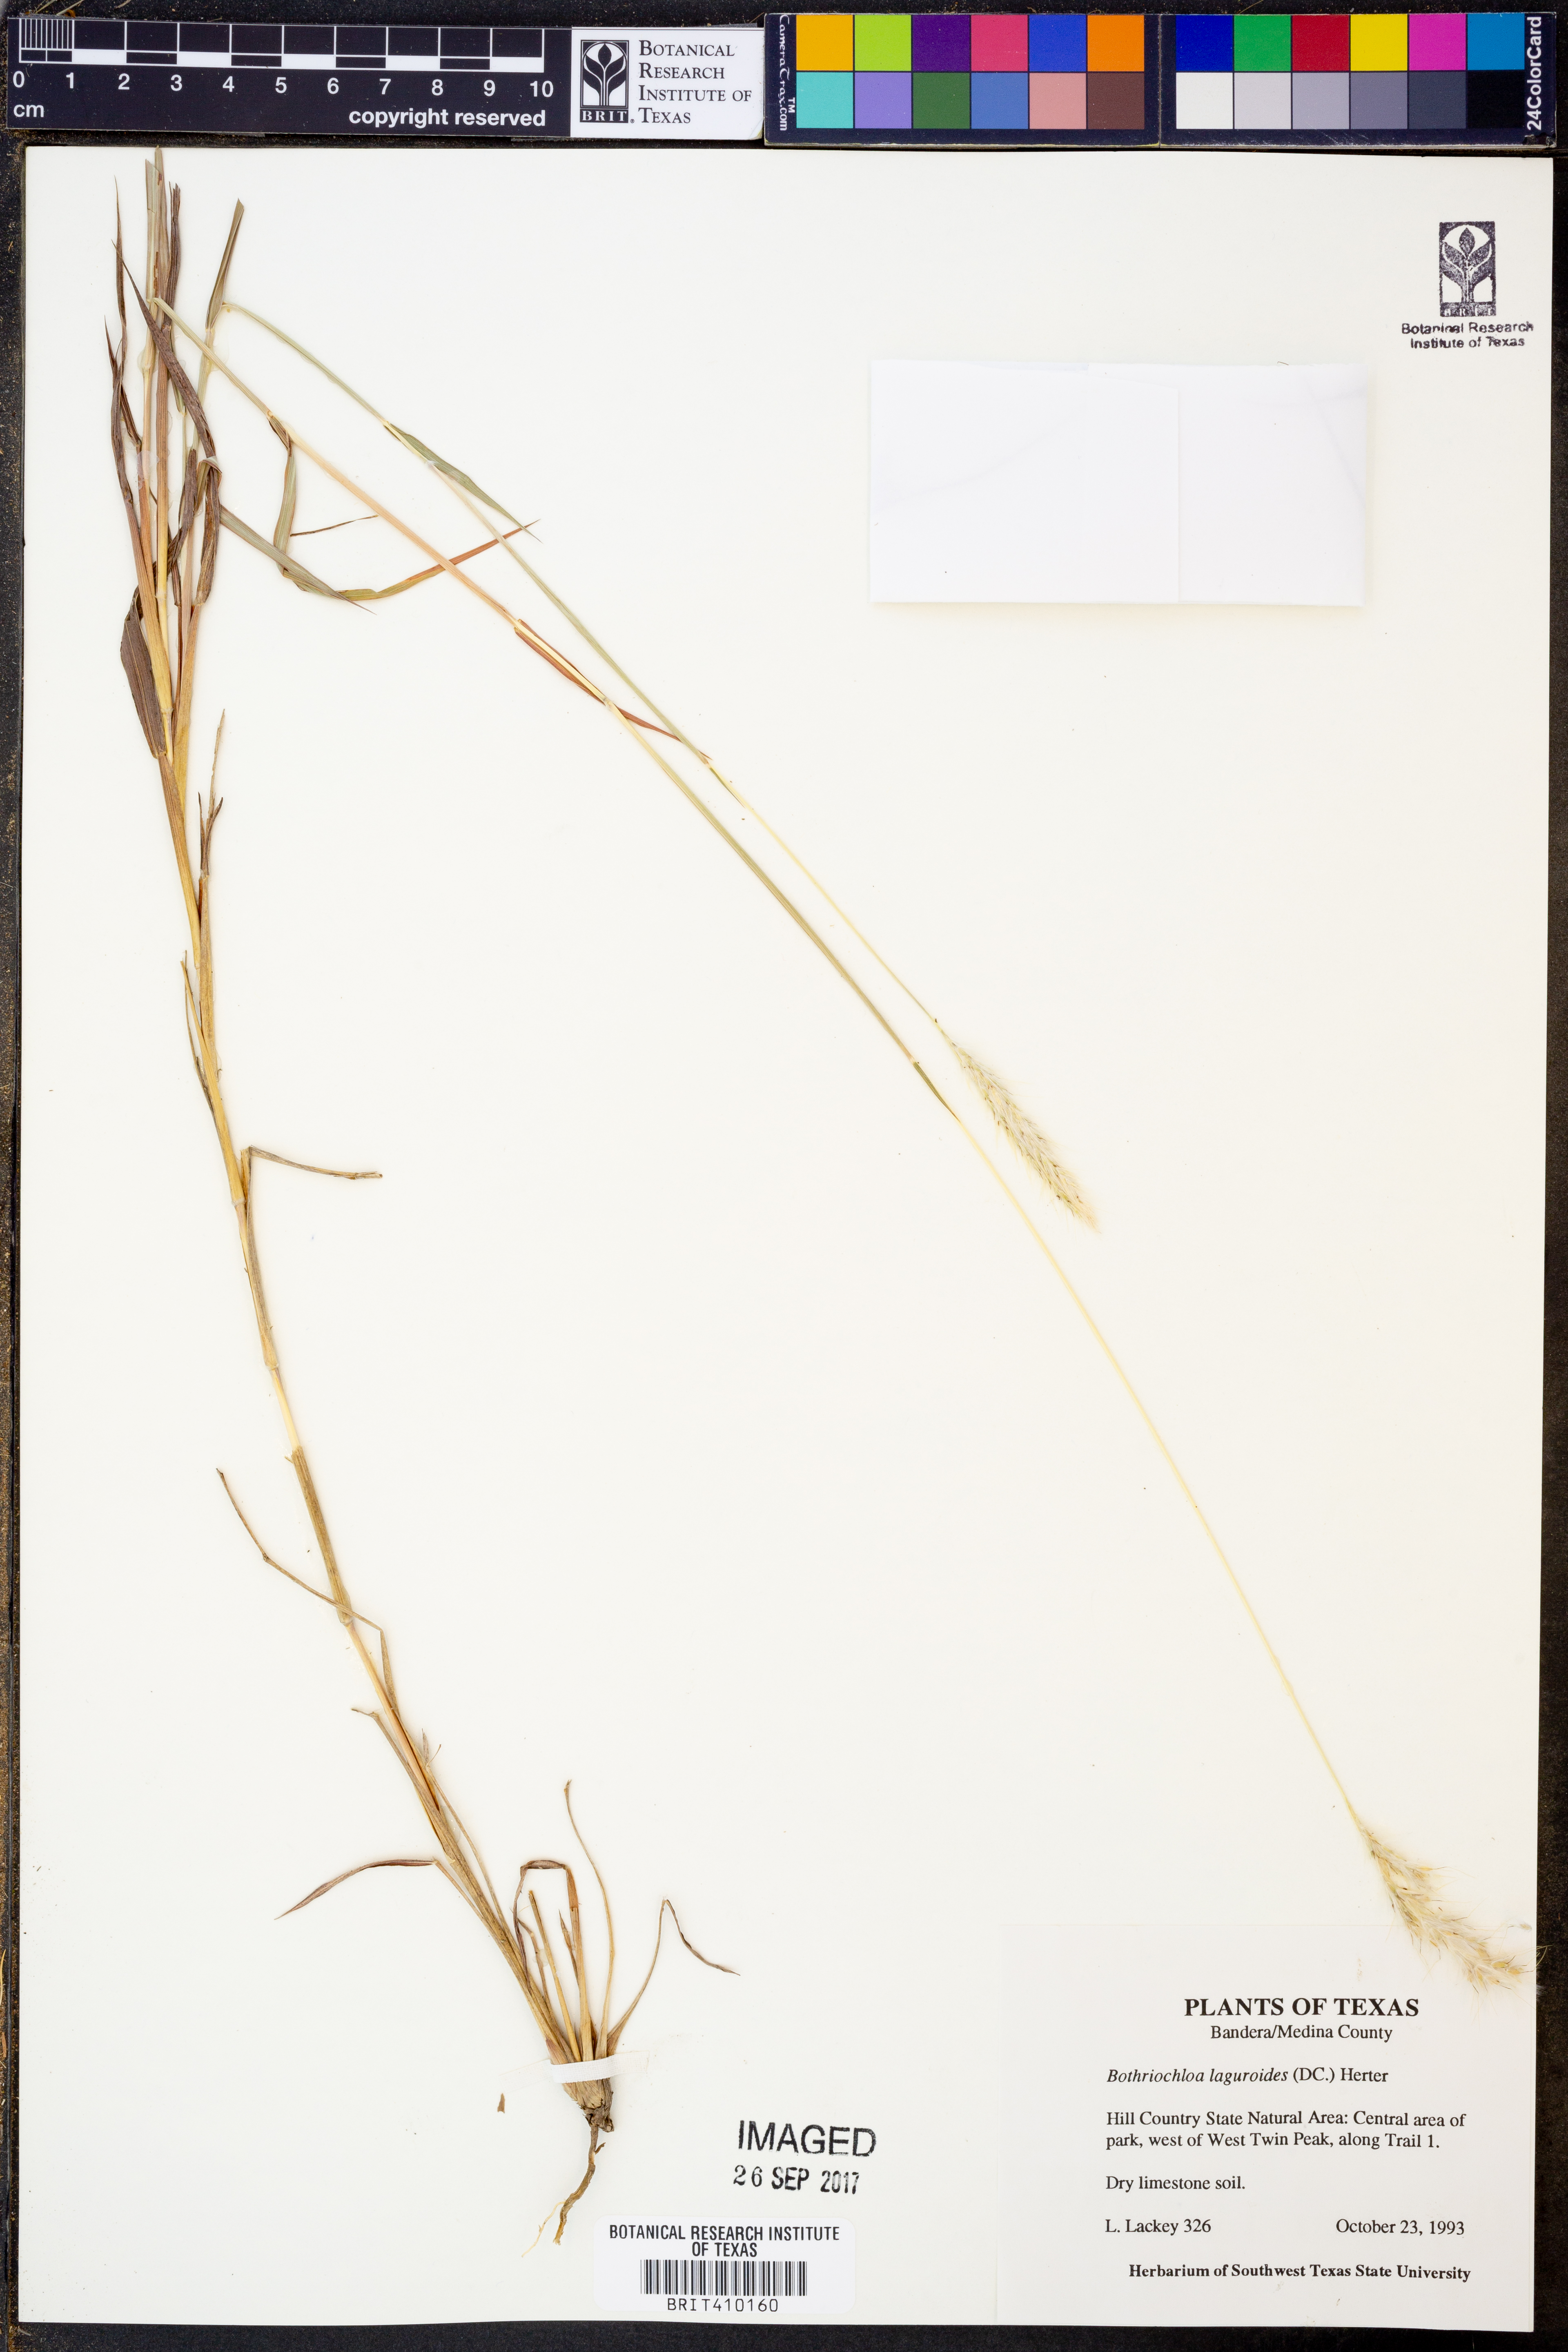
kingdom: Plantae
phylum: Tracheophyta
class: Liliopsida
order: Poales
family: Poaceae
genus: Bothriochloa
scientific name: Bothriochloa laguroides
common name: Silver bluestem
